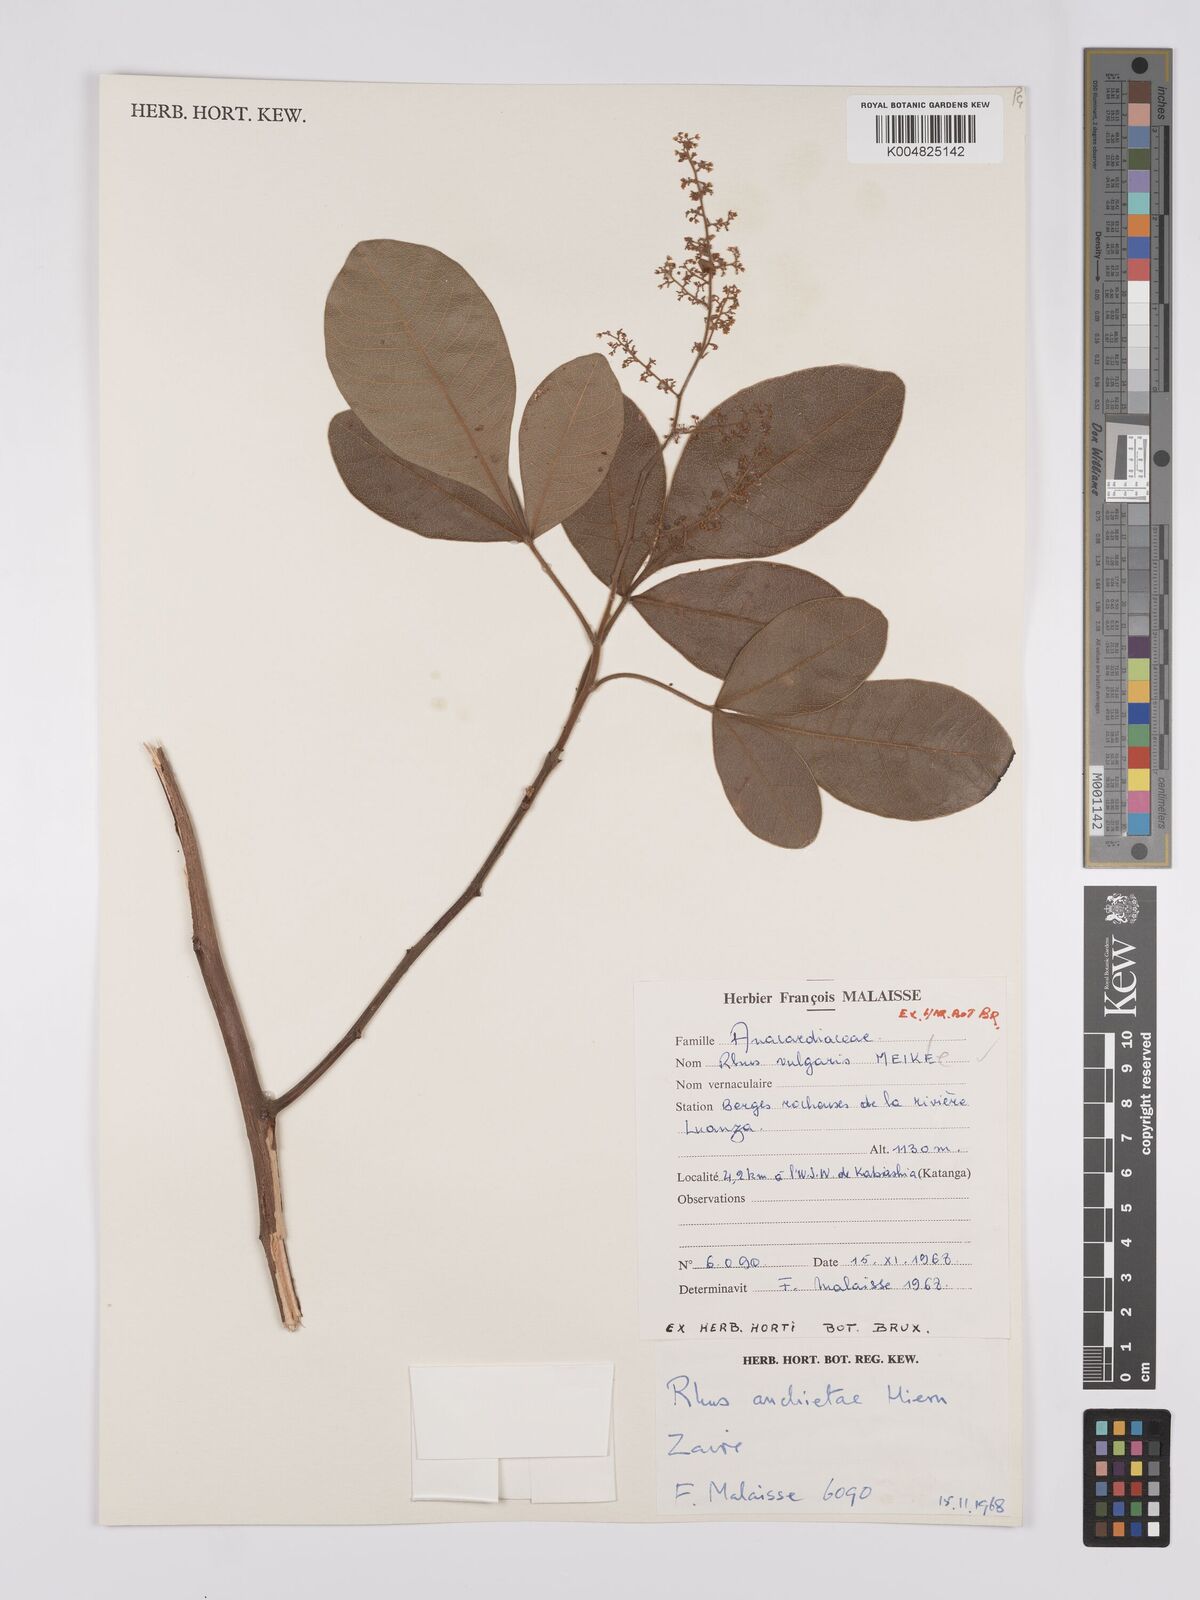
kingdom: Plantae
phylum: Tracheophyta
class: Magnoliopsida
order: Sapindales
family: Anacardiaceae
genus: Searsia
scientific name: Searsia anchietae
